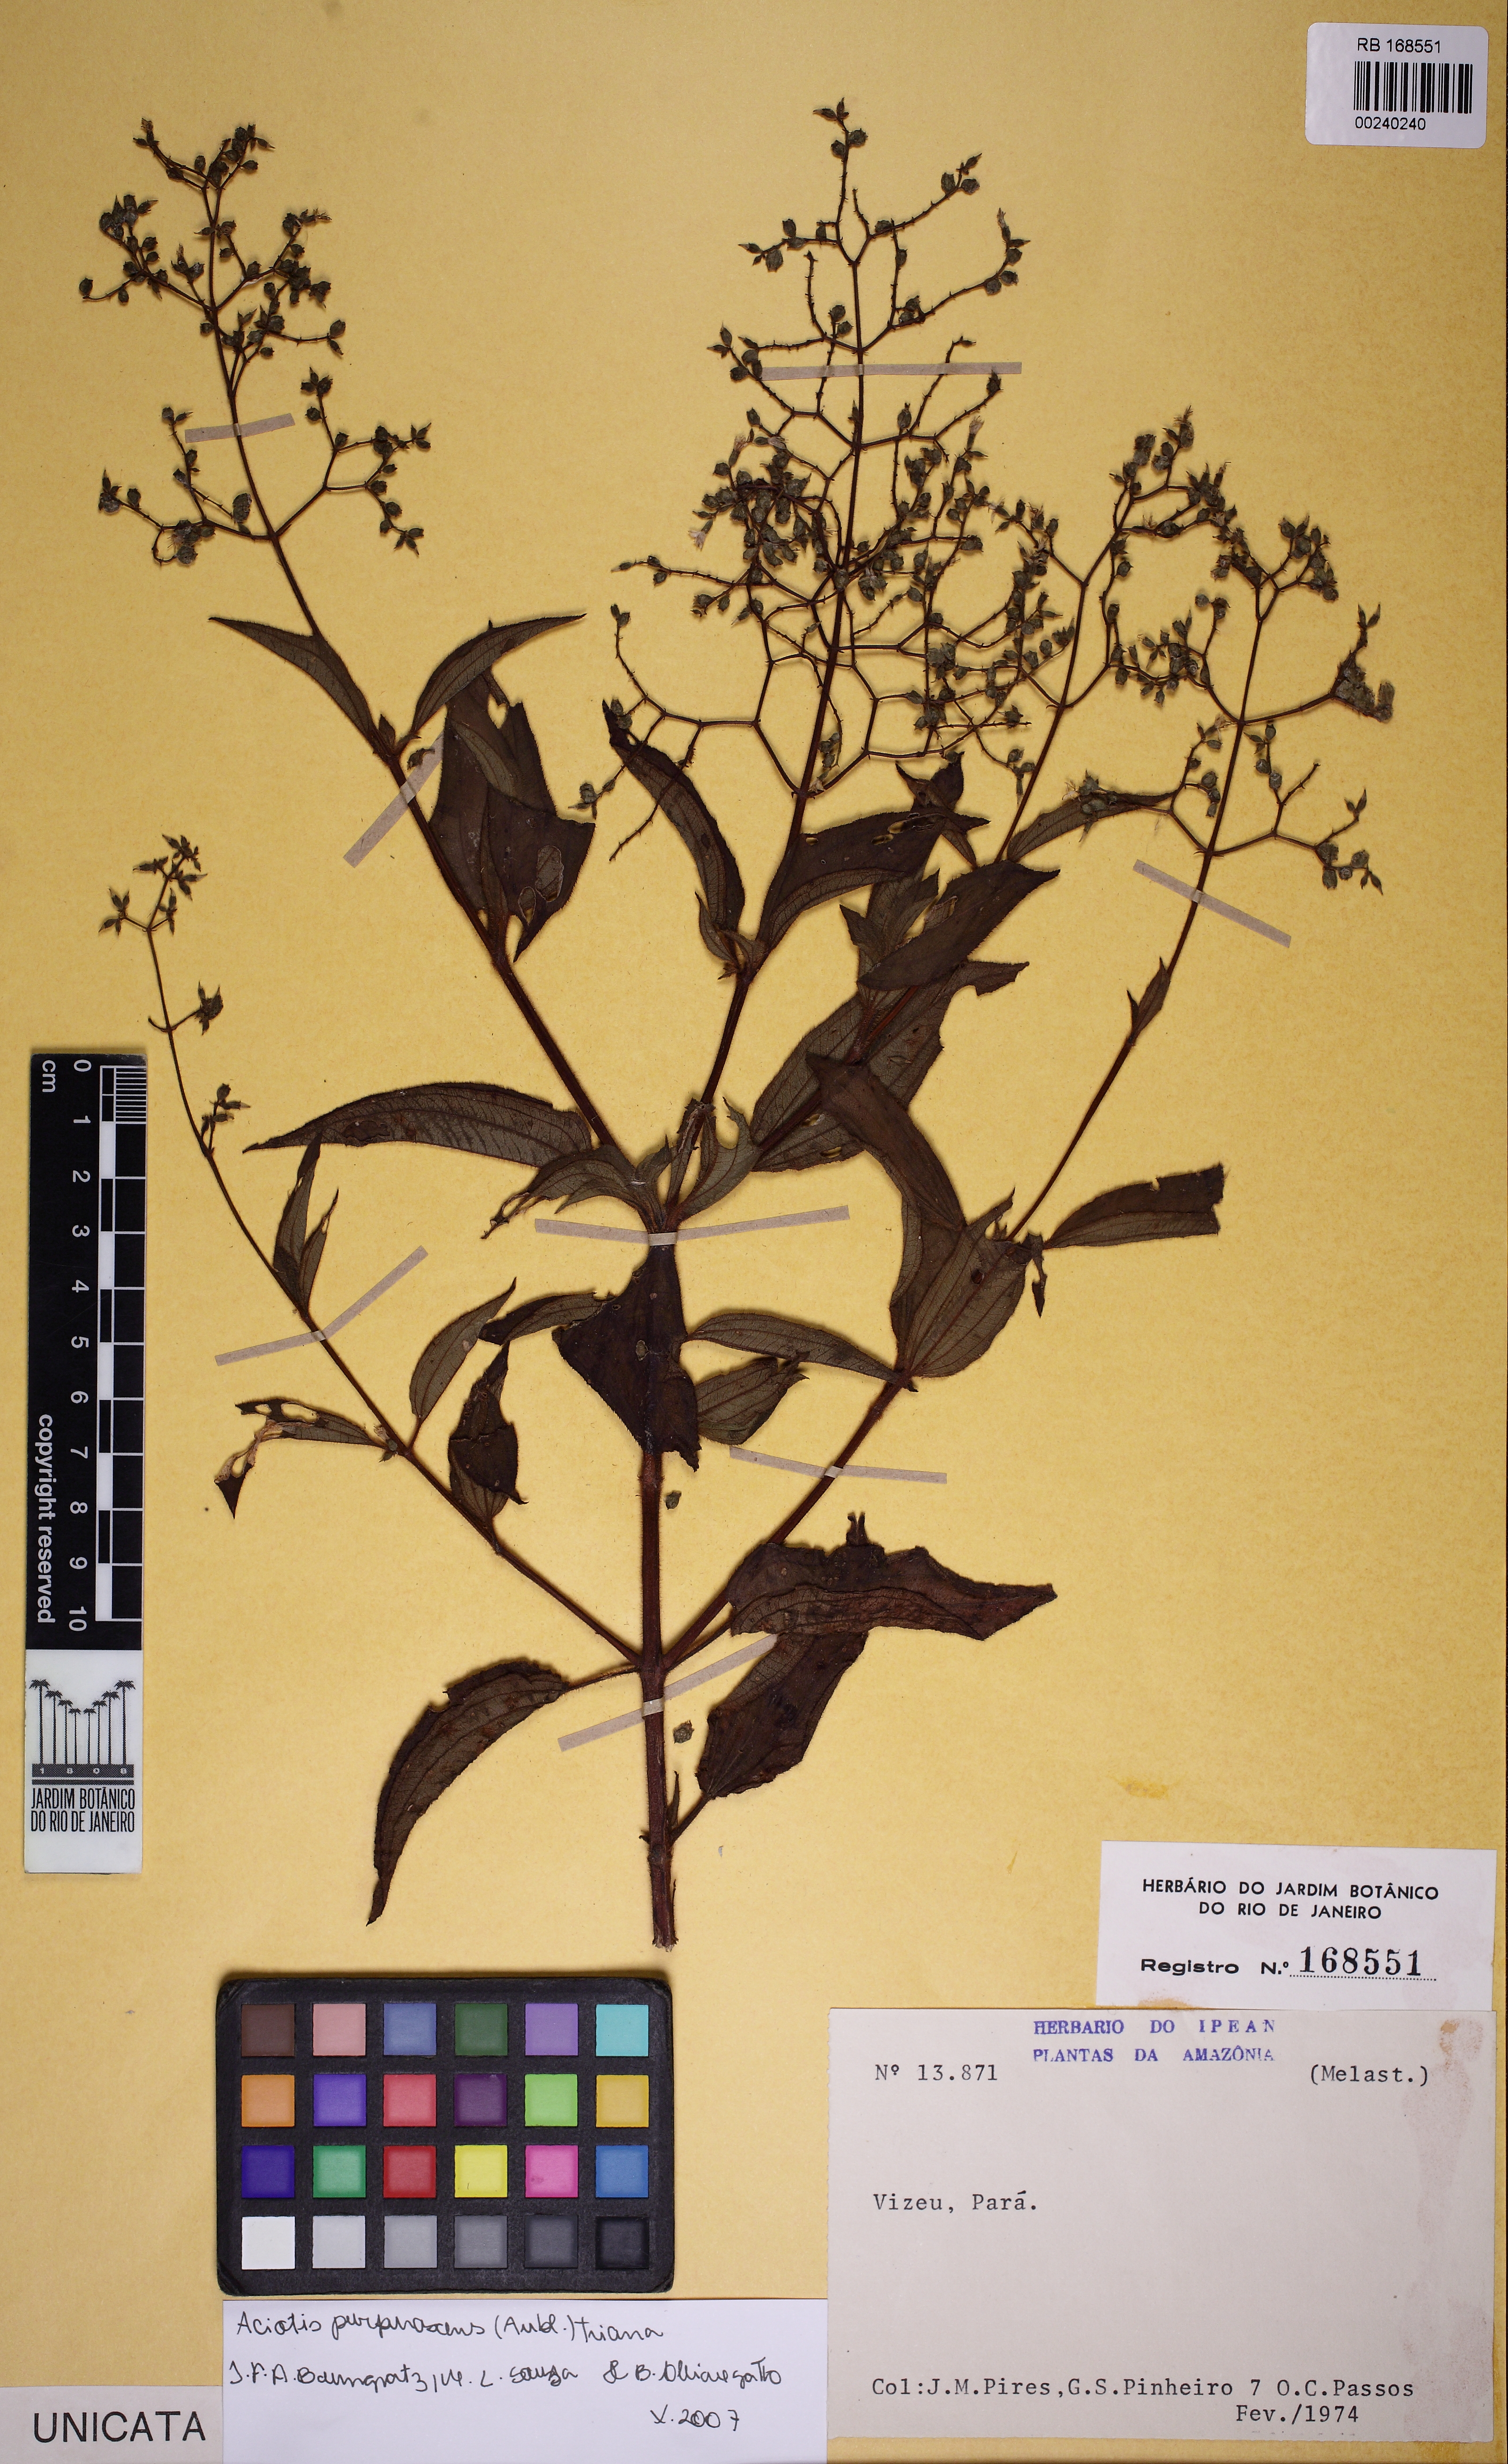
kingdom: Plantae
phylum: Tracheophyta
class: Magnoliopsida
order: Myrtales
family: Melastomataceae
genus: Aciotis
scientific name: Aciotis purpurascens
